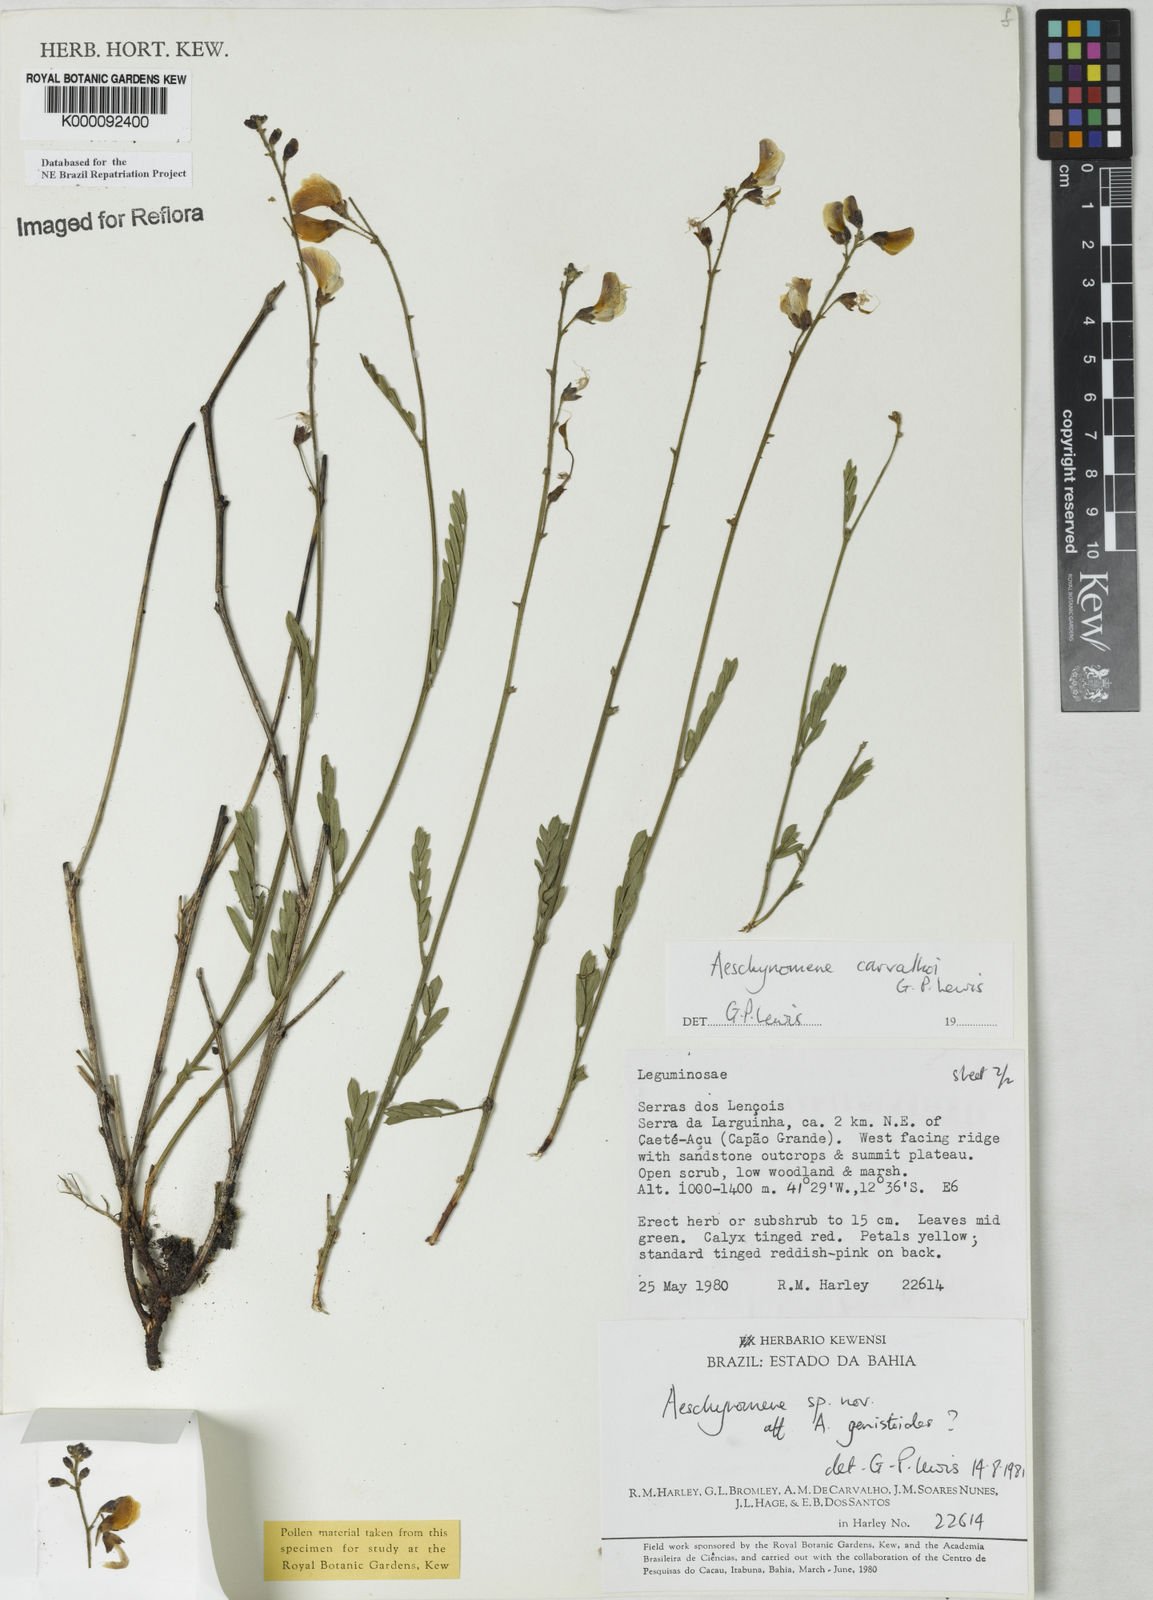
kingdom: Plantae
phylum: Tracheophyta
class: Magnoliopsida
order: Fabales
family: Fabaceae
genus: Ctenodon
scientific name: Ctenodon carvalhoi
